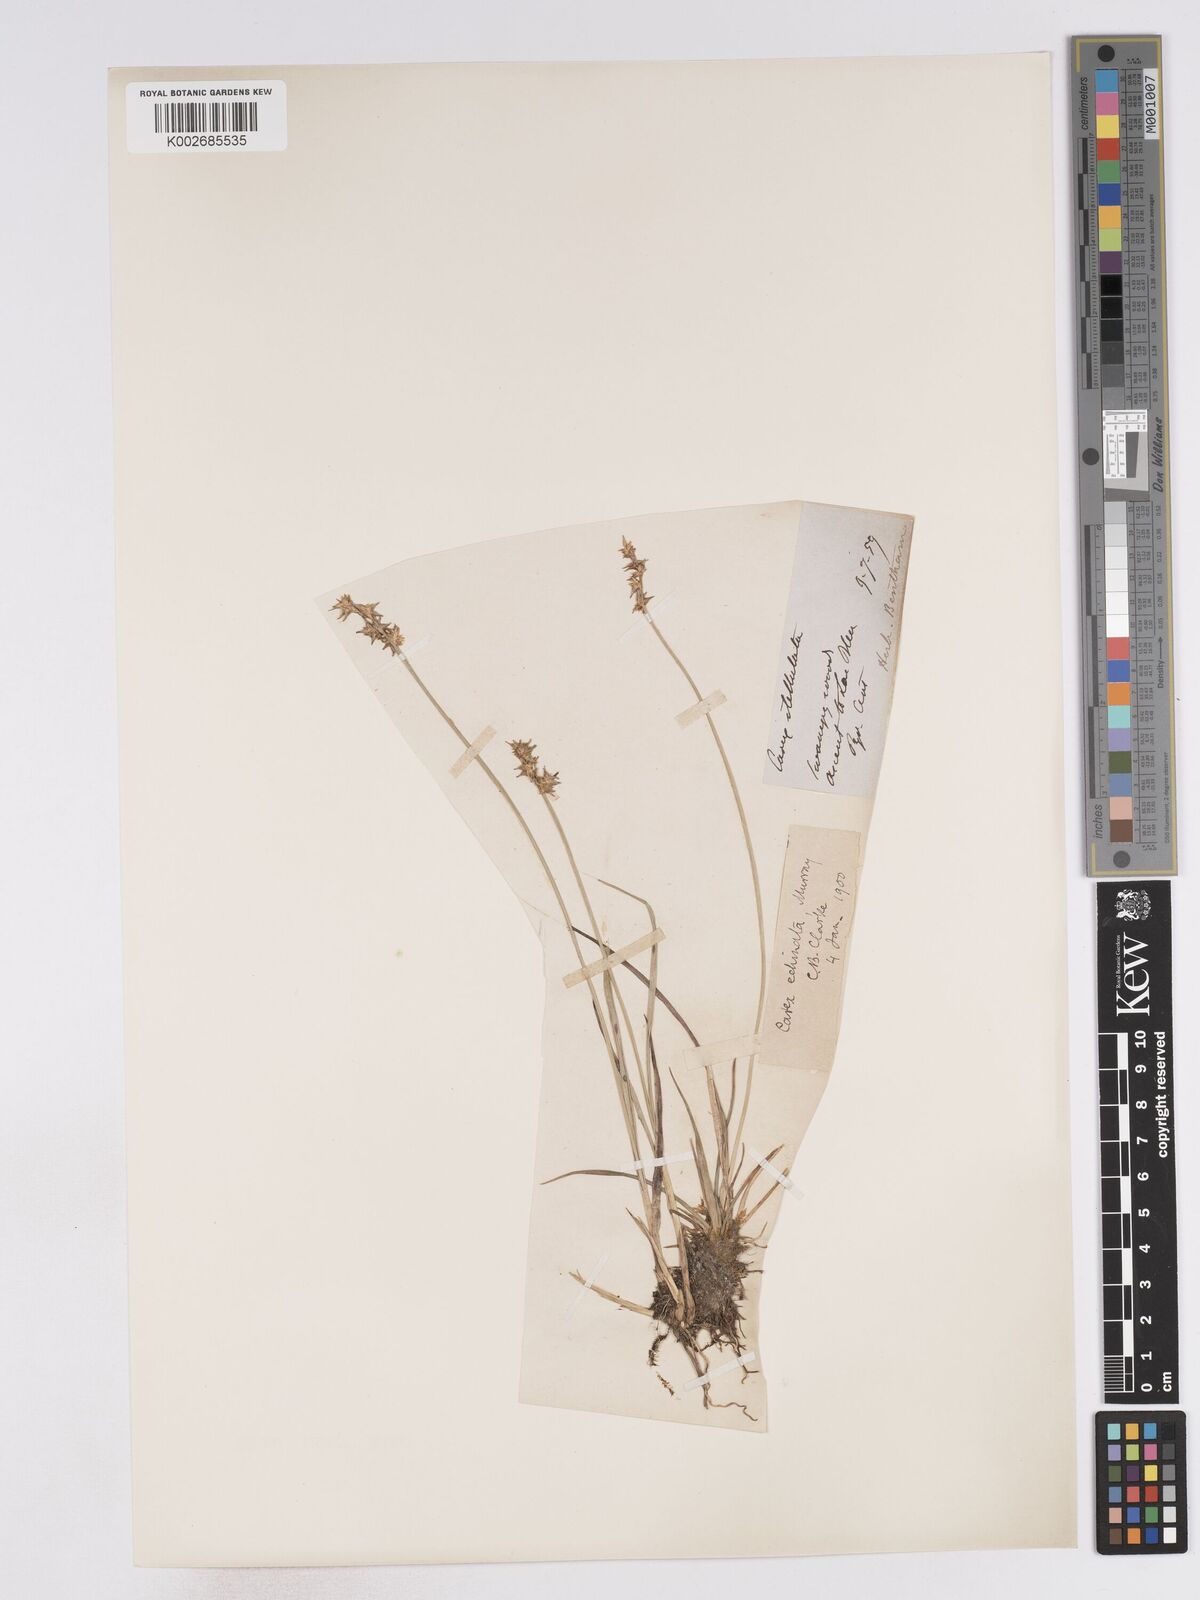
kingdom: Plantae
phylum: Tracheophyta
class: Liliopsida
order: Poales
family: Cyperaceae
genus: Carex
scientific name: Carex echinata
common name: Star sedge
